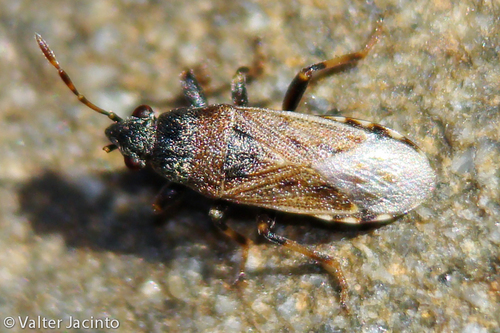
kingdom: Animalia
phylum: Arthropoda
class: Insecta
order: Hemiptera
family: Heterogastridae
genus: Heterogaster
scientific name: Heterogaster
